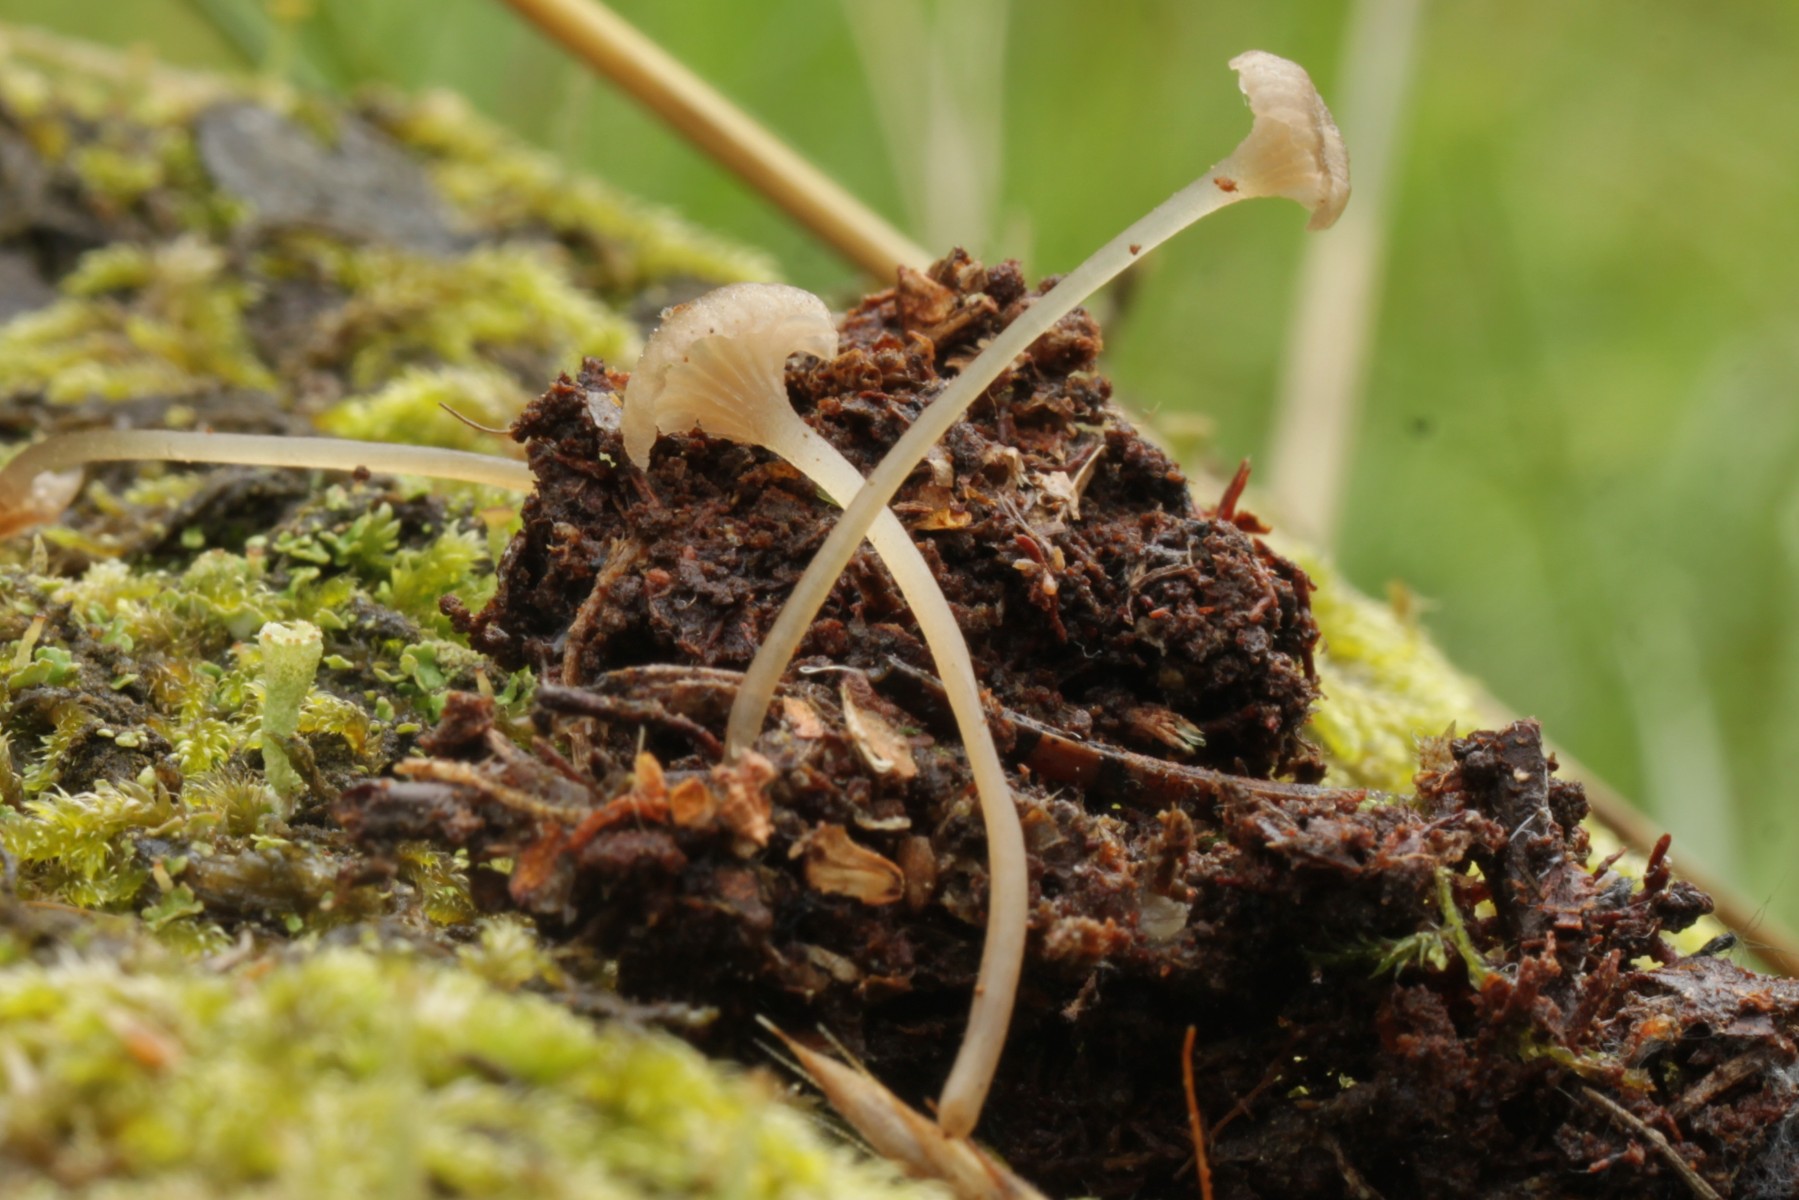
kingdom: Fungi
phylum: Basidiomycota
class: Agaricomycetes
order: Agaricales
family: Entolomataceae
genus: Entoloma
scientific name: Entoloma rhodocylix
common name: fjernbladet rødblad
